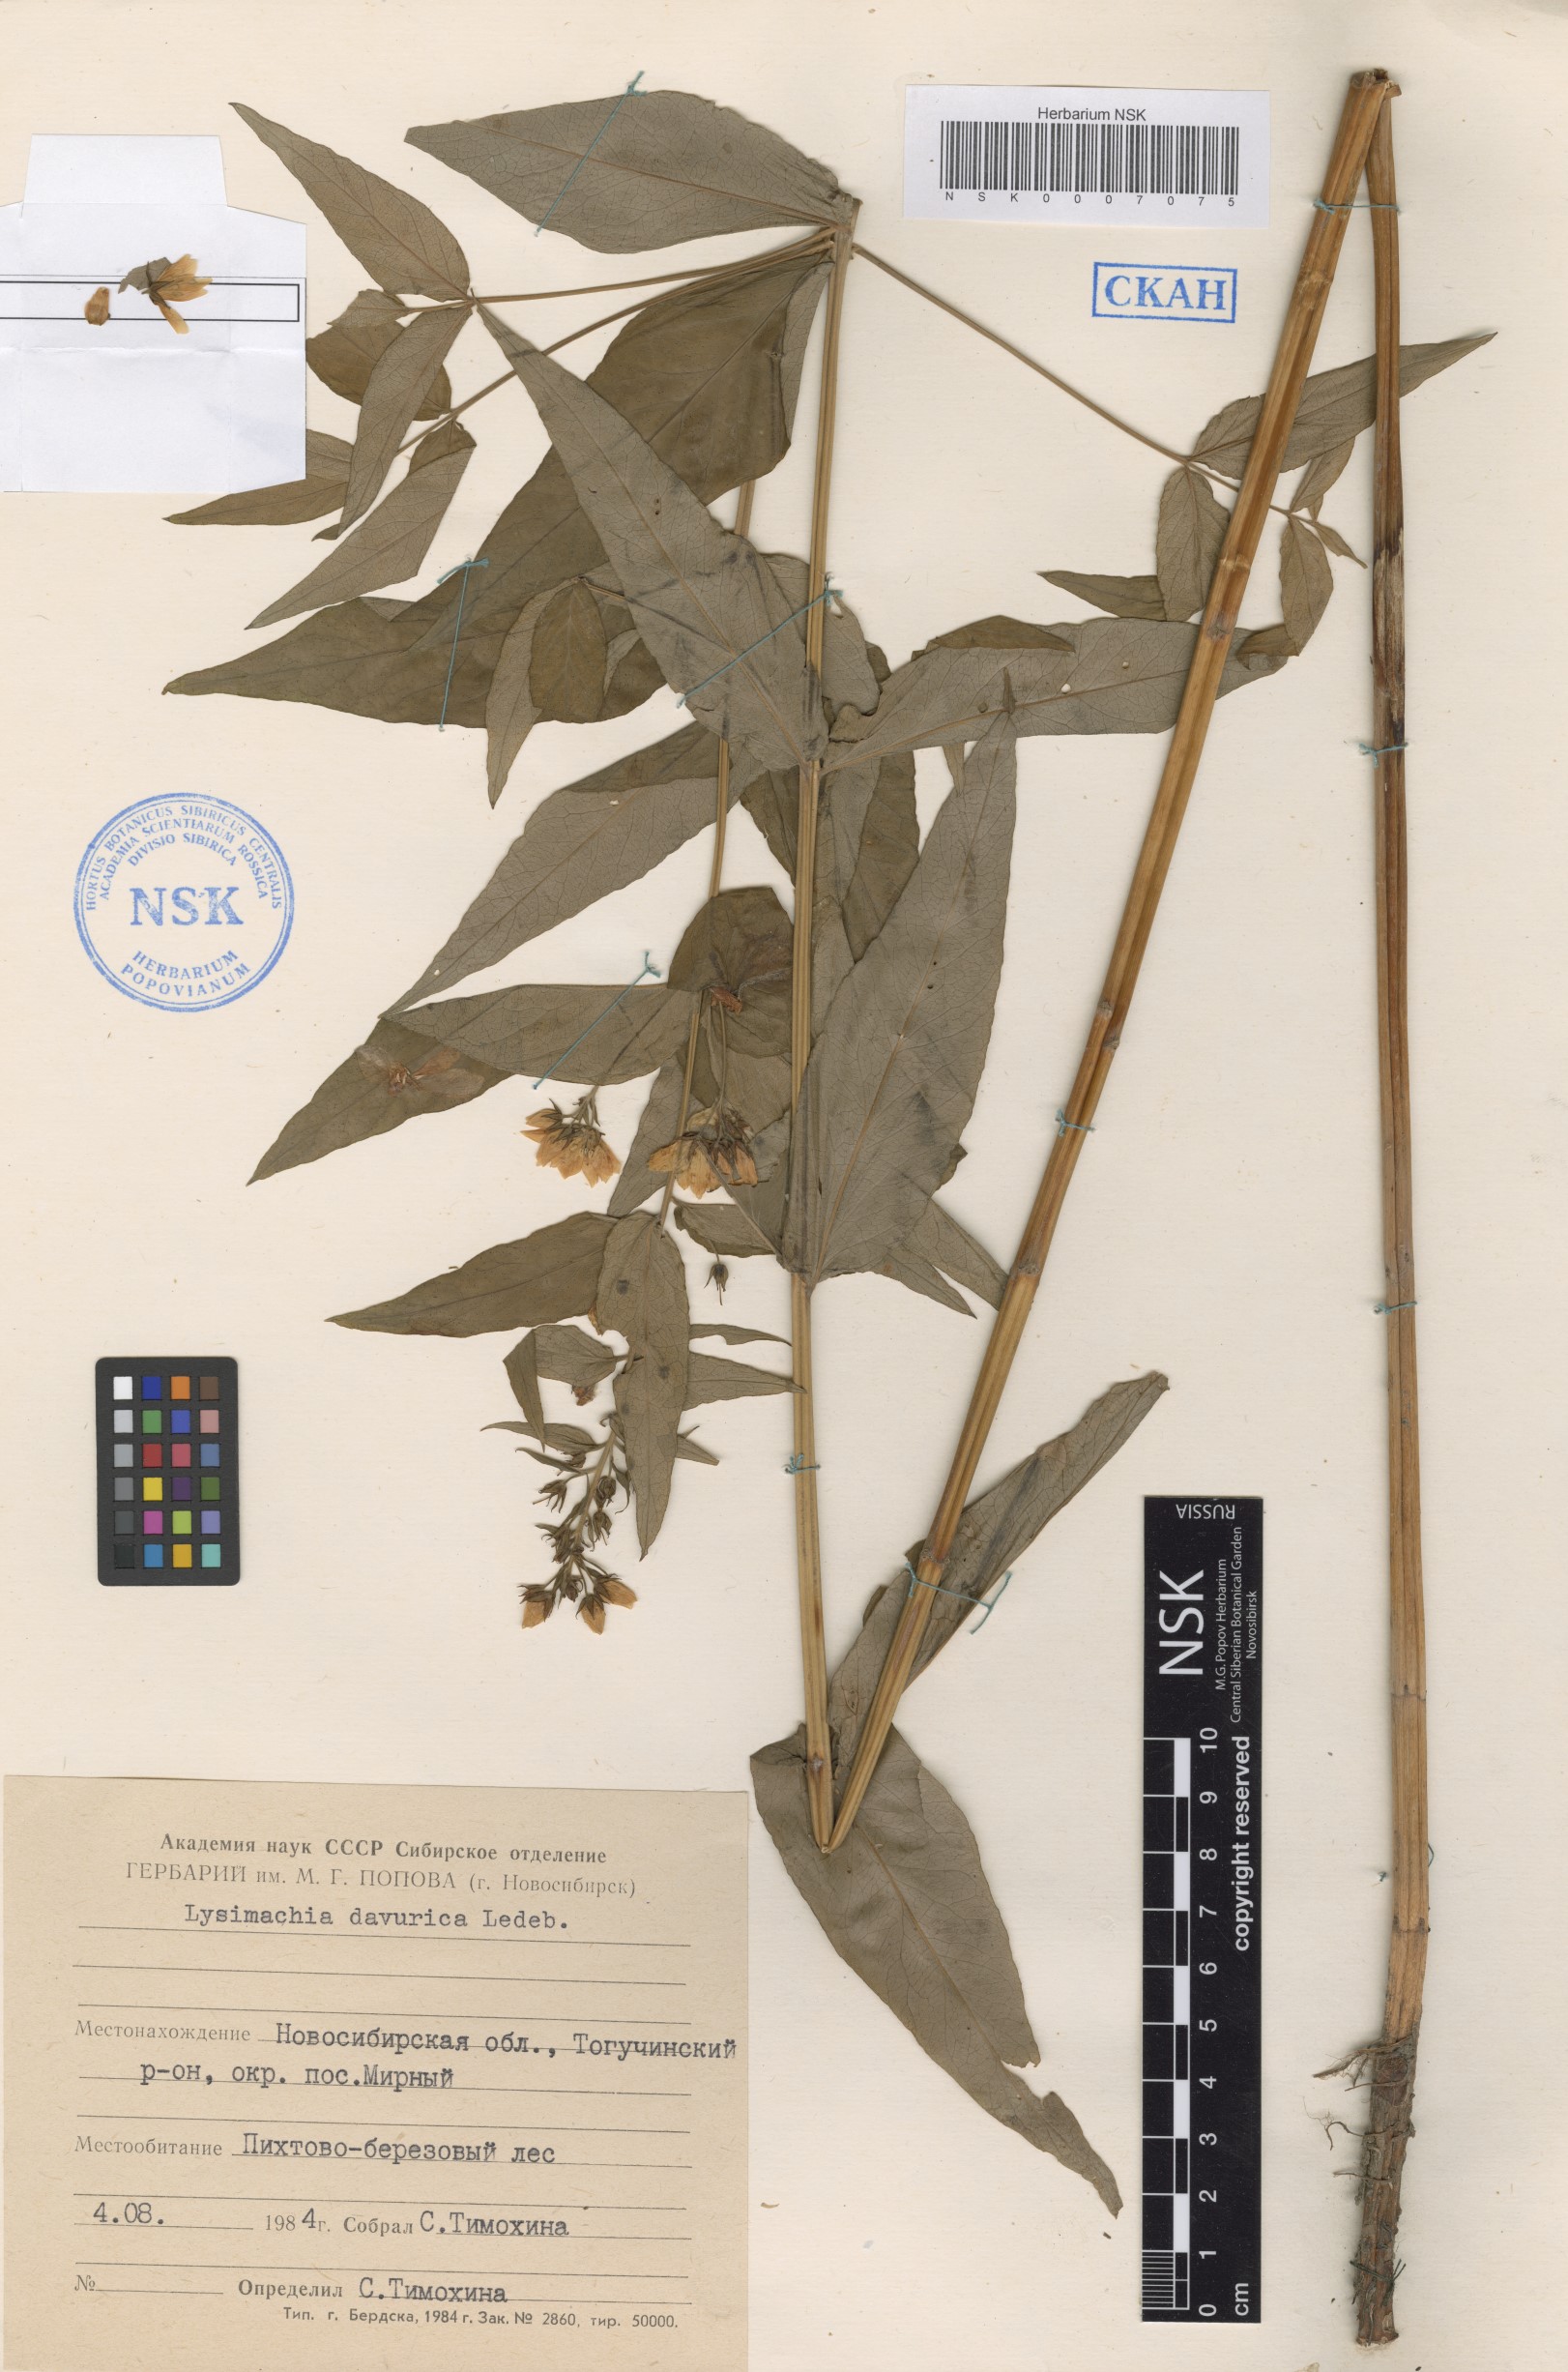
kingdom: Plantae
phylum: Tracheophyta
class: Magnoliopsida
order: Ericales
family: Primulaceae
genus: Lysimachia
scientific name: Lysimachia davurica
